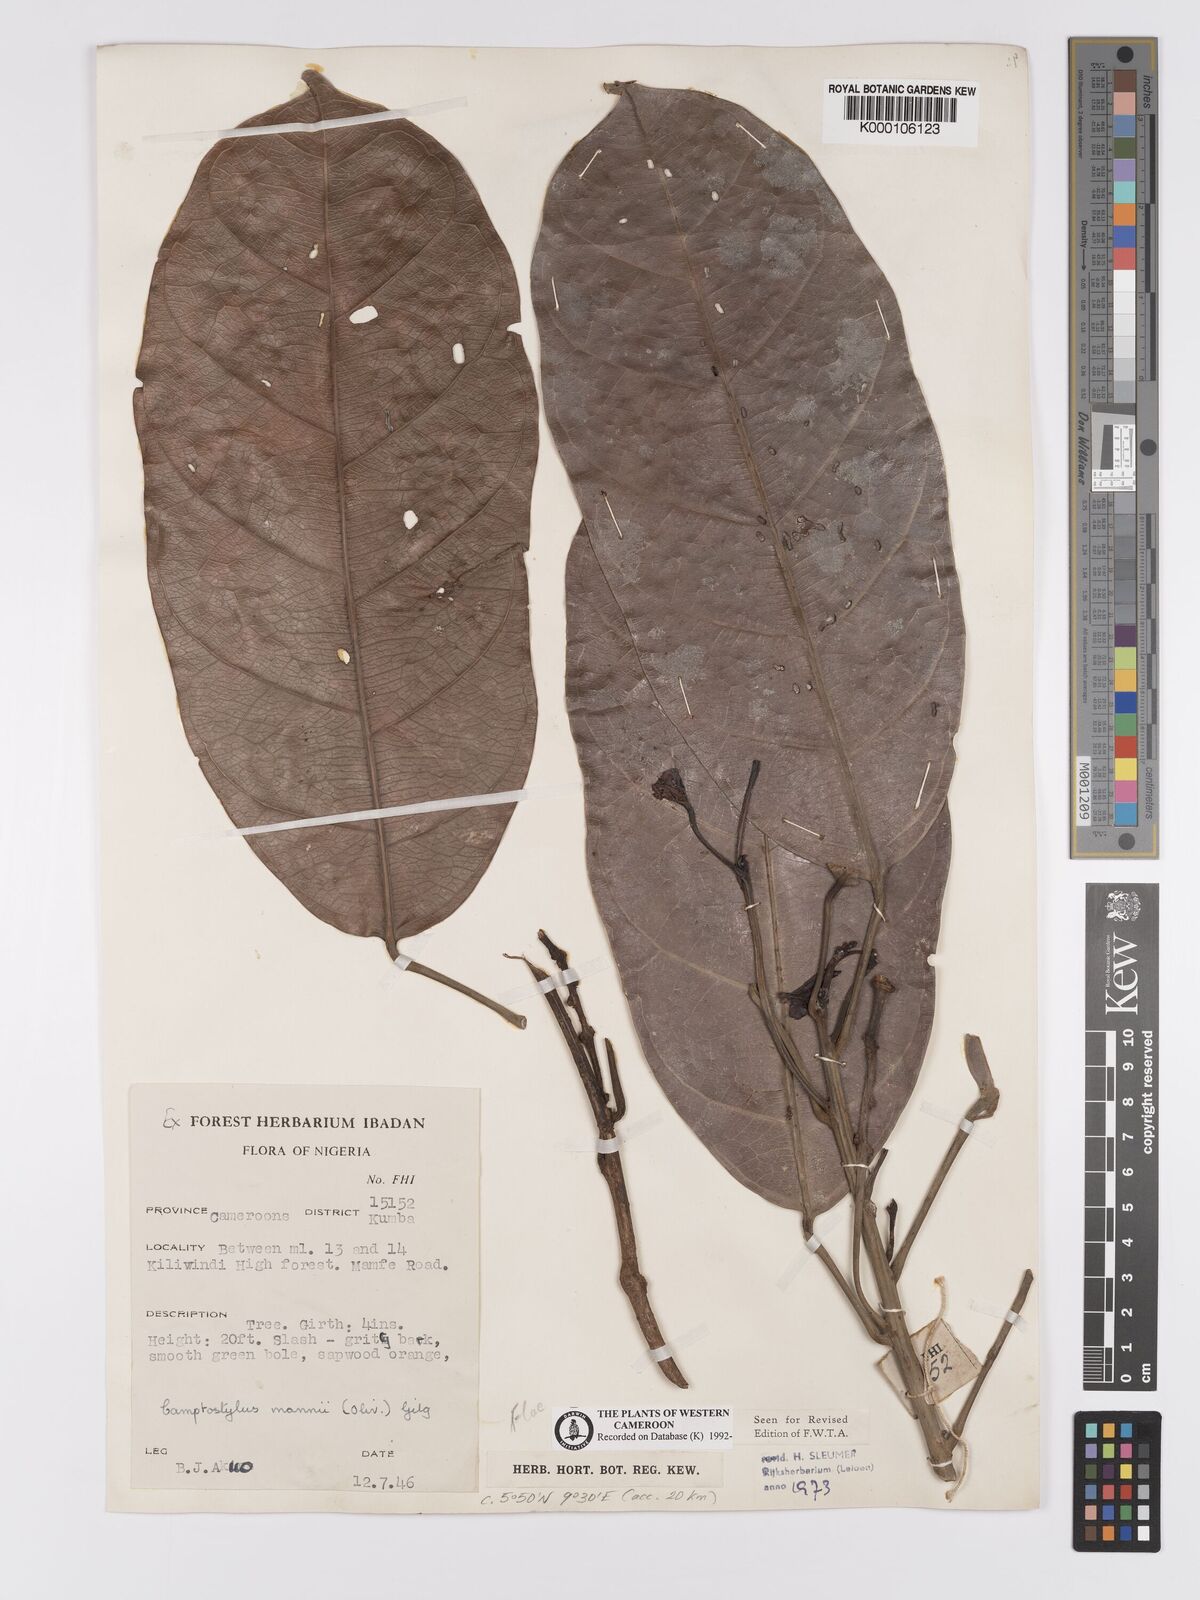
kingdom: Plantae
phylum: Tracheophyta
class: Magnoliopsida
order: Malpighiales
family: Achariaceae
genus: Camptostylus
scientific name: Camptostylus mannii
